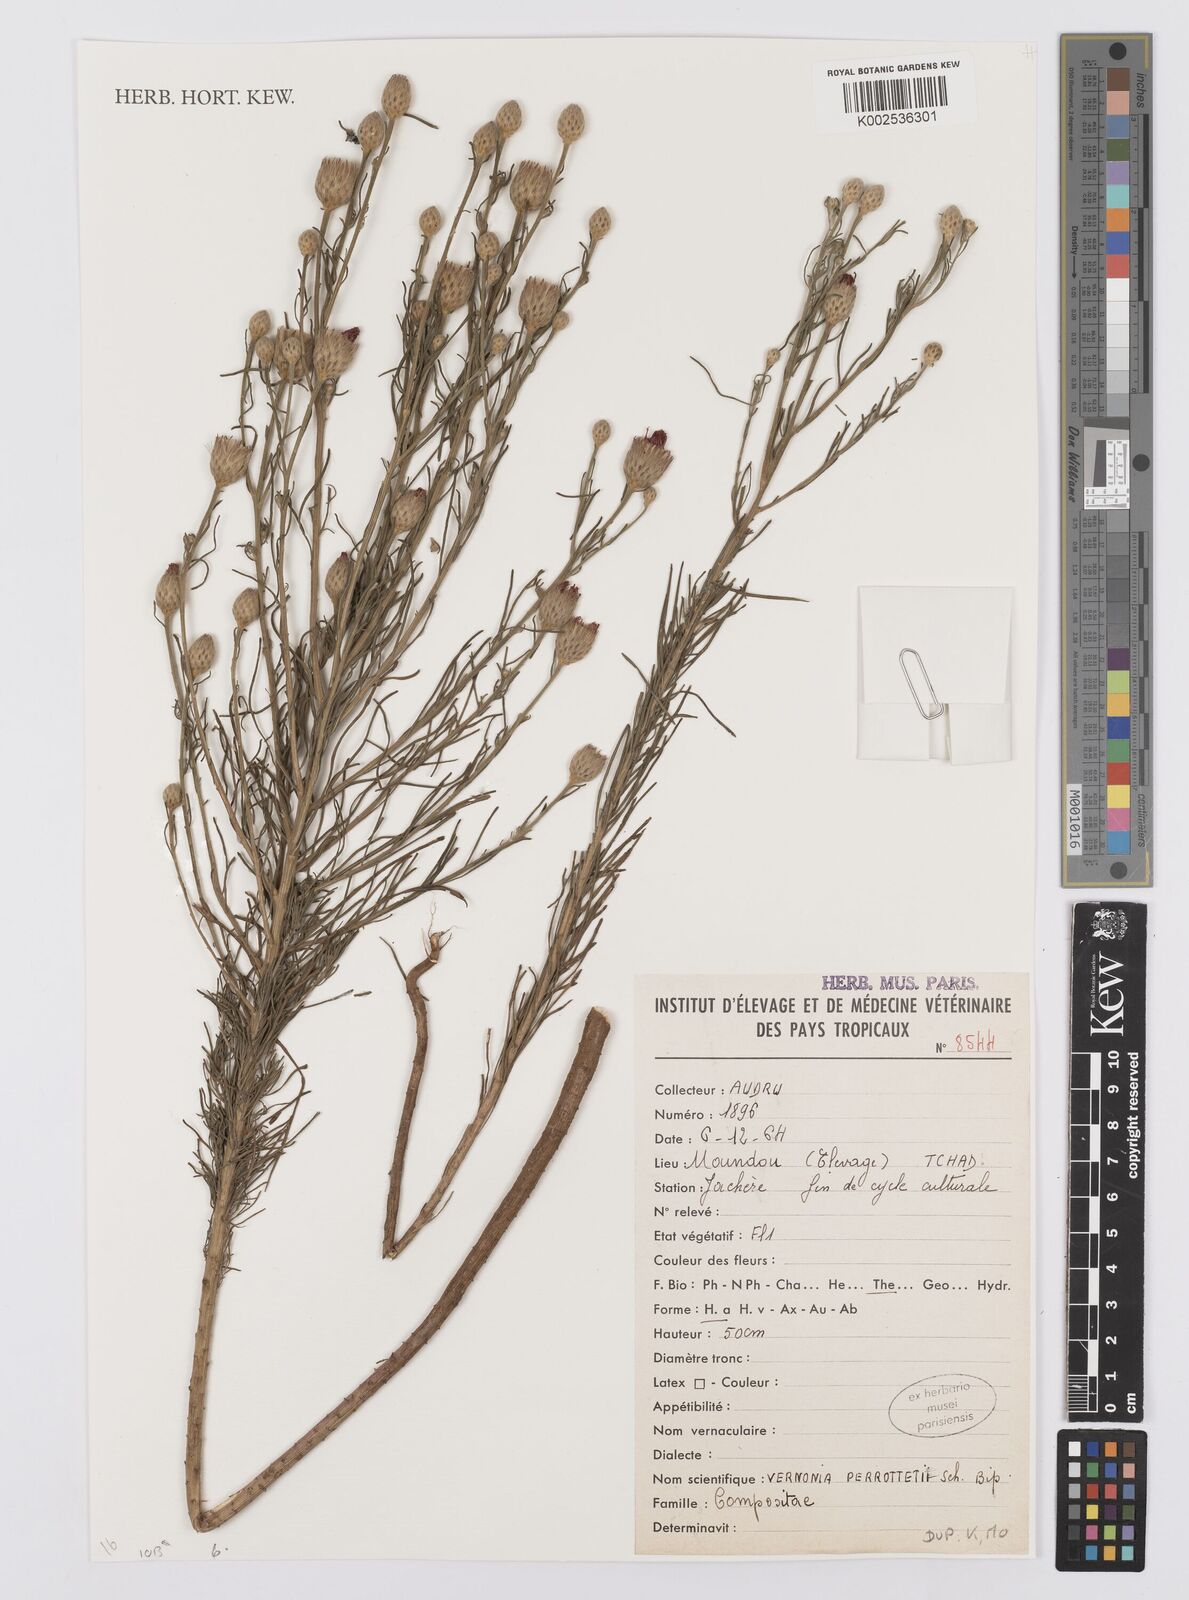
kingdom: Plantae
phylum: Tracheophyta
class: Magnoliopsida
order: Asterales
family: Asteraceae
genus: Crystallopollen
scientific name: Crystallopollen serratuloides
